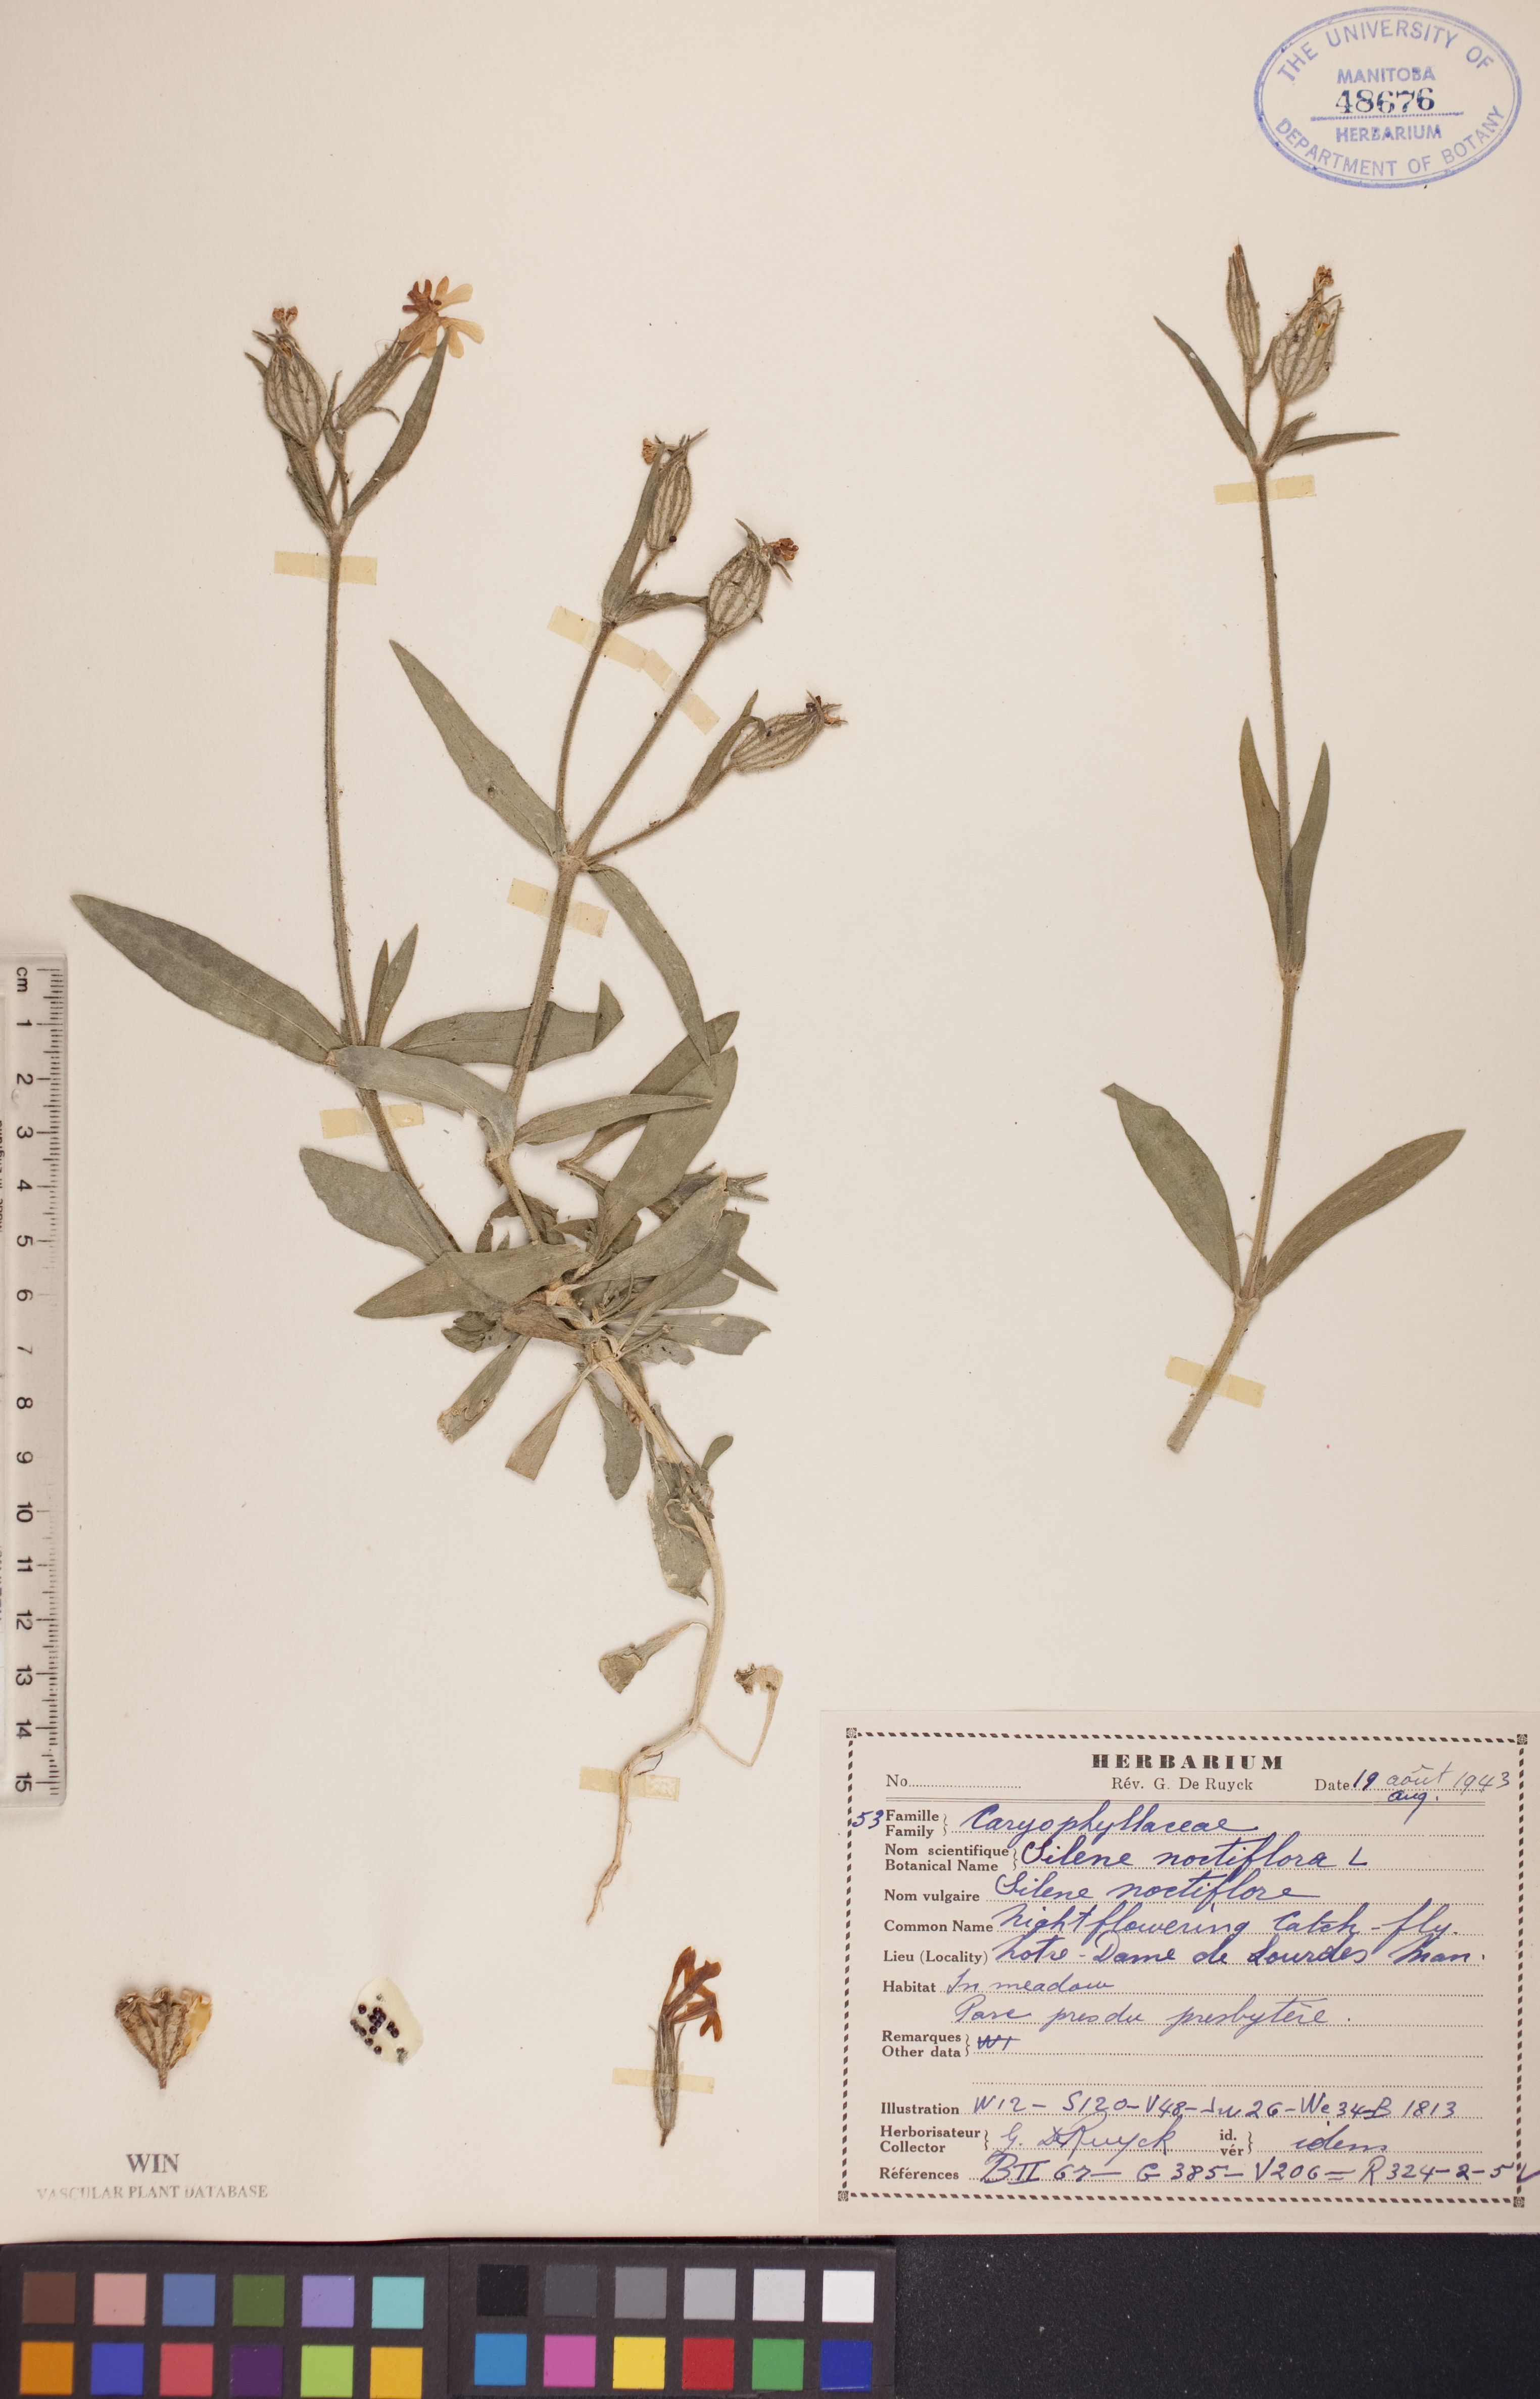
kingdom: Plantae
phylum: Tracheophyta
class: Magnoliopsida
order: Caryophyllales
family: Caryophyllaceae
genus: Silene
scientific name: Silene noctiflora
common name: Night-flowering catchfly
